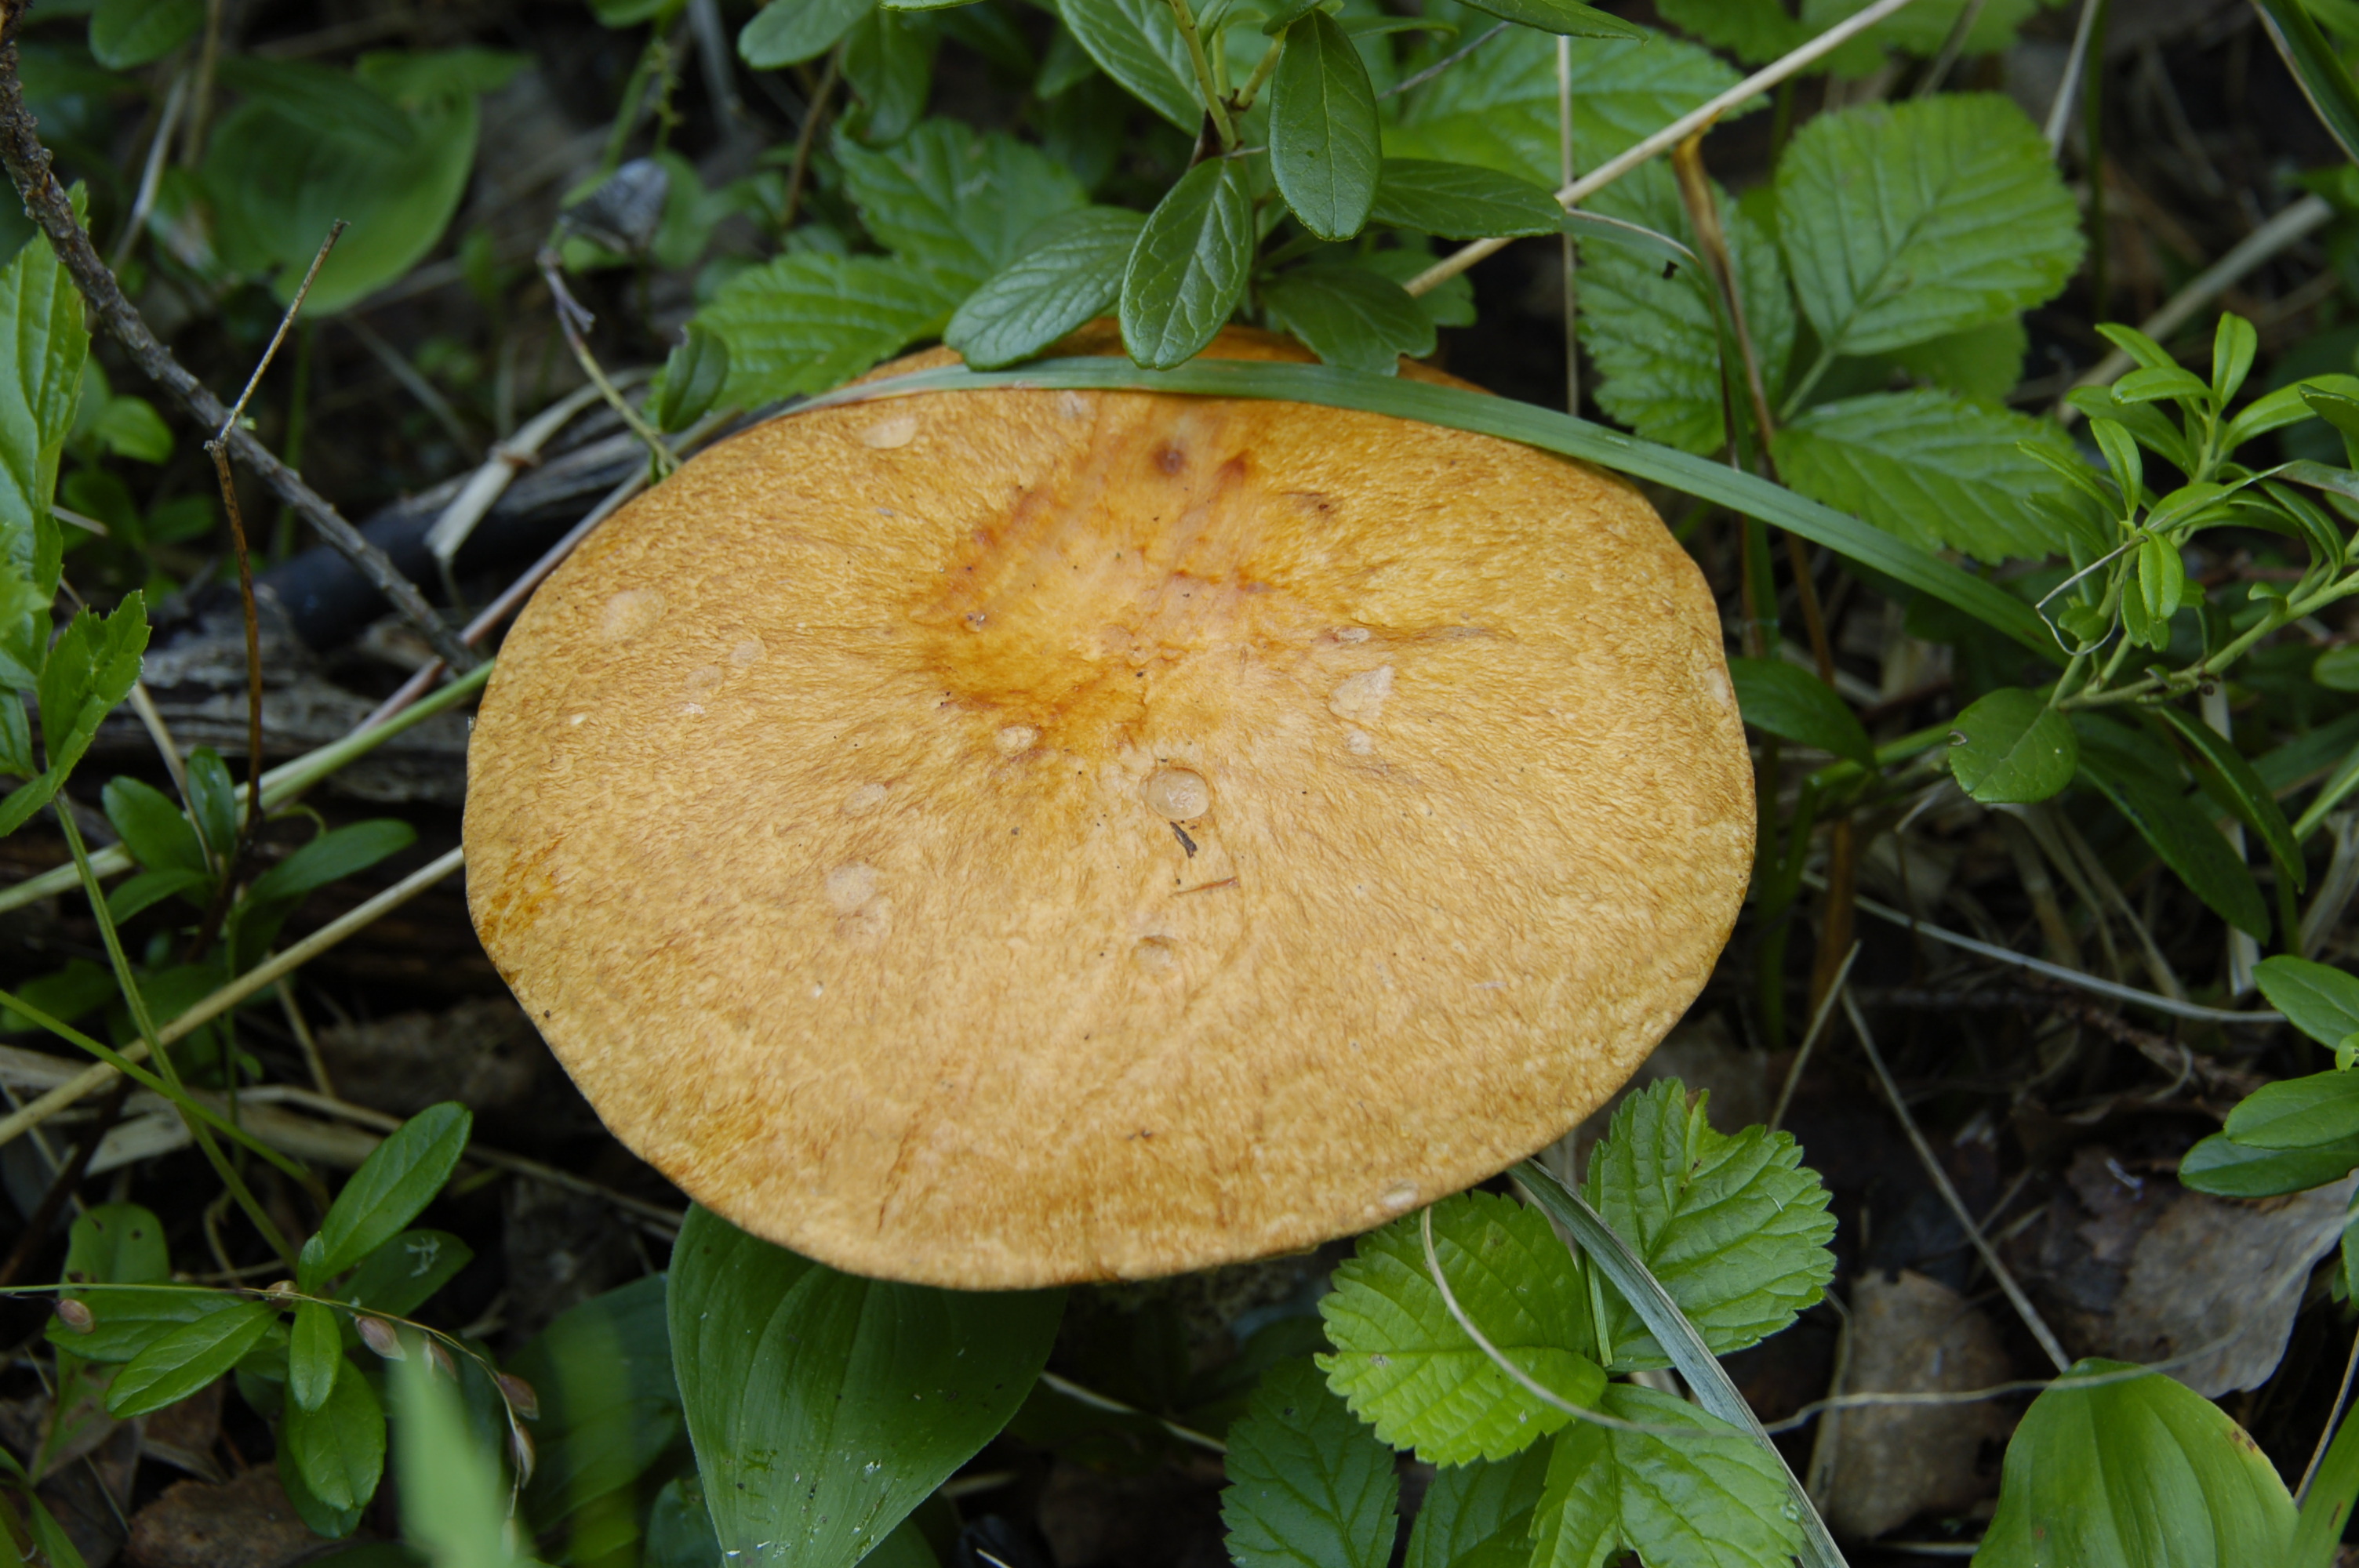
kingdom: Fungi
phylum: Basidiomycota
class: Agaricomycetes
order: Boletales
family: Boletaceae
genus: Leccinum
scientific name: Leccinum versipelle
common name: Orange birch bolete
